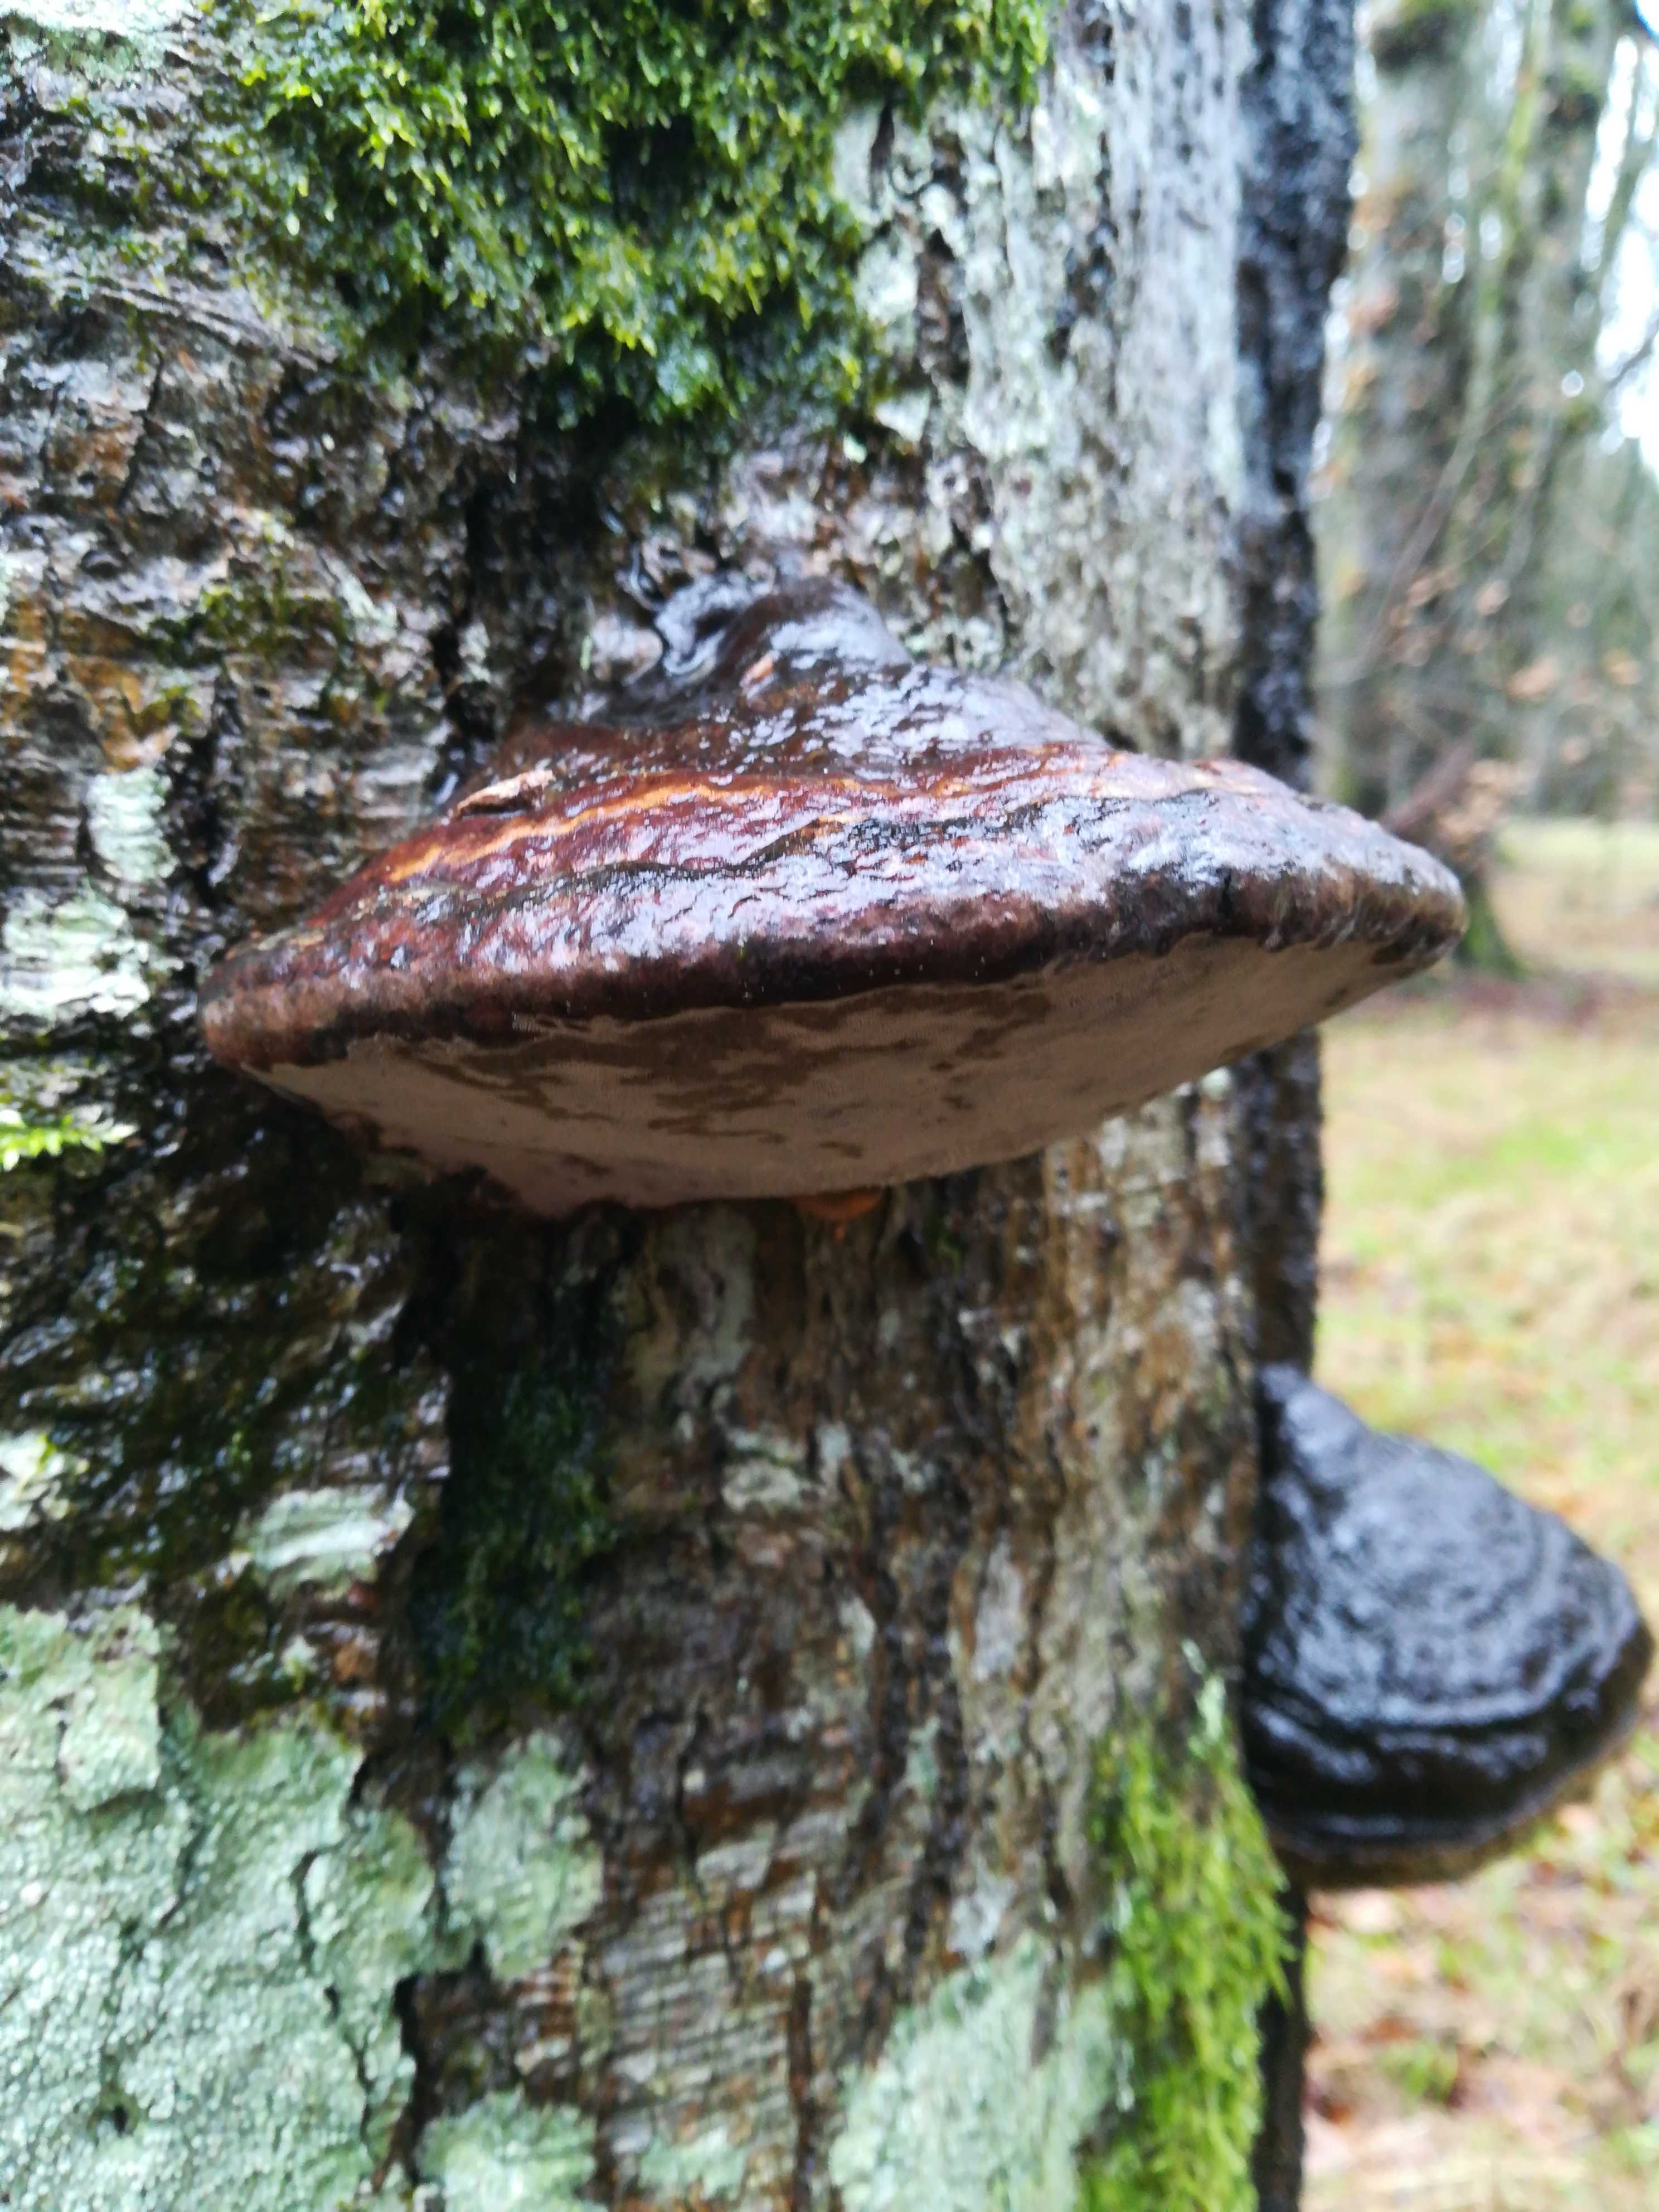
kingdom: Fungi
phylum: Basidiomycota
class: Agaricomycetes
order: Polyporales
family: Polyporaceae
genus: Fomes
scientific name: Fomes fomentarius
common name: tøndersvamp
